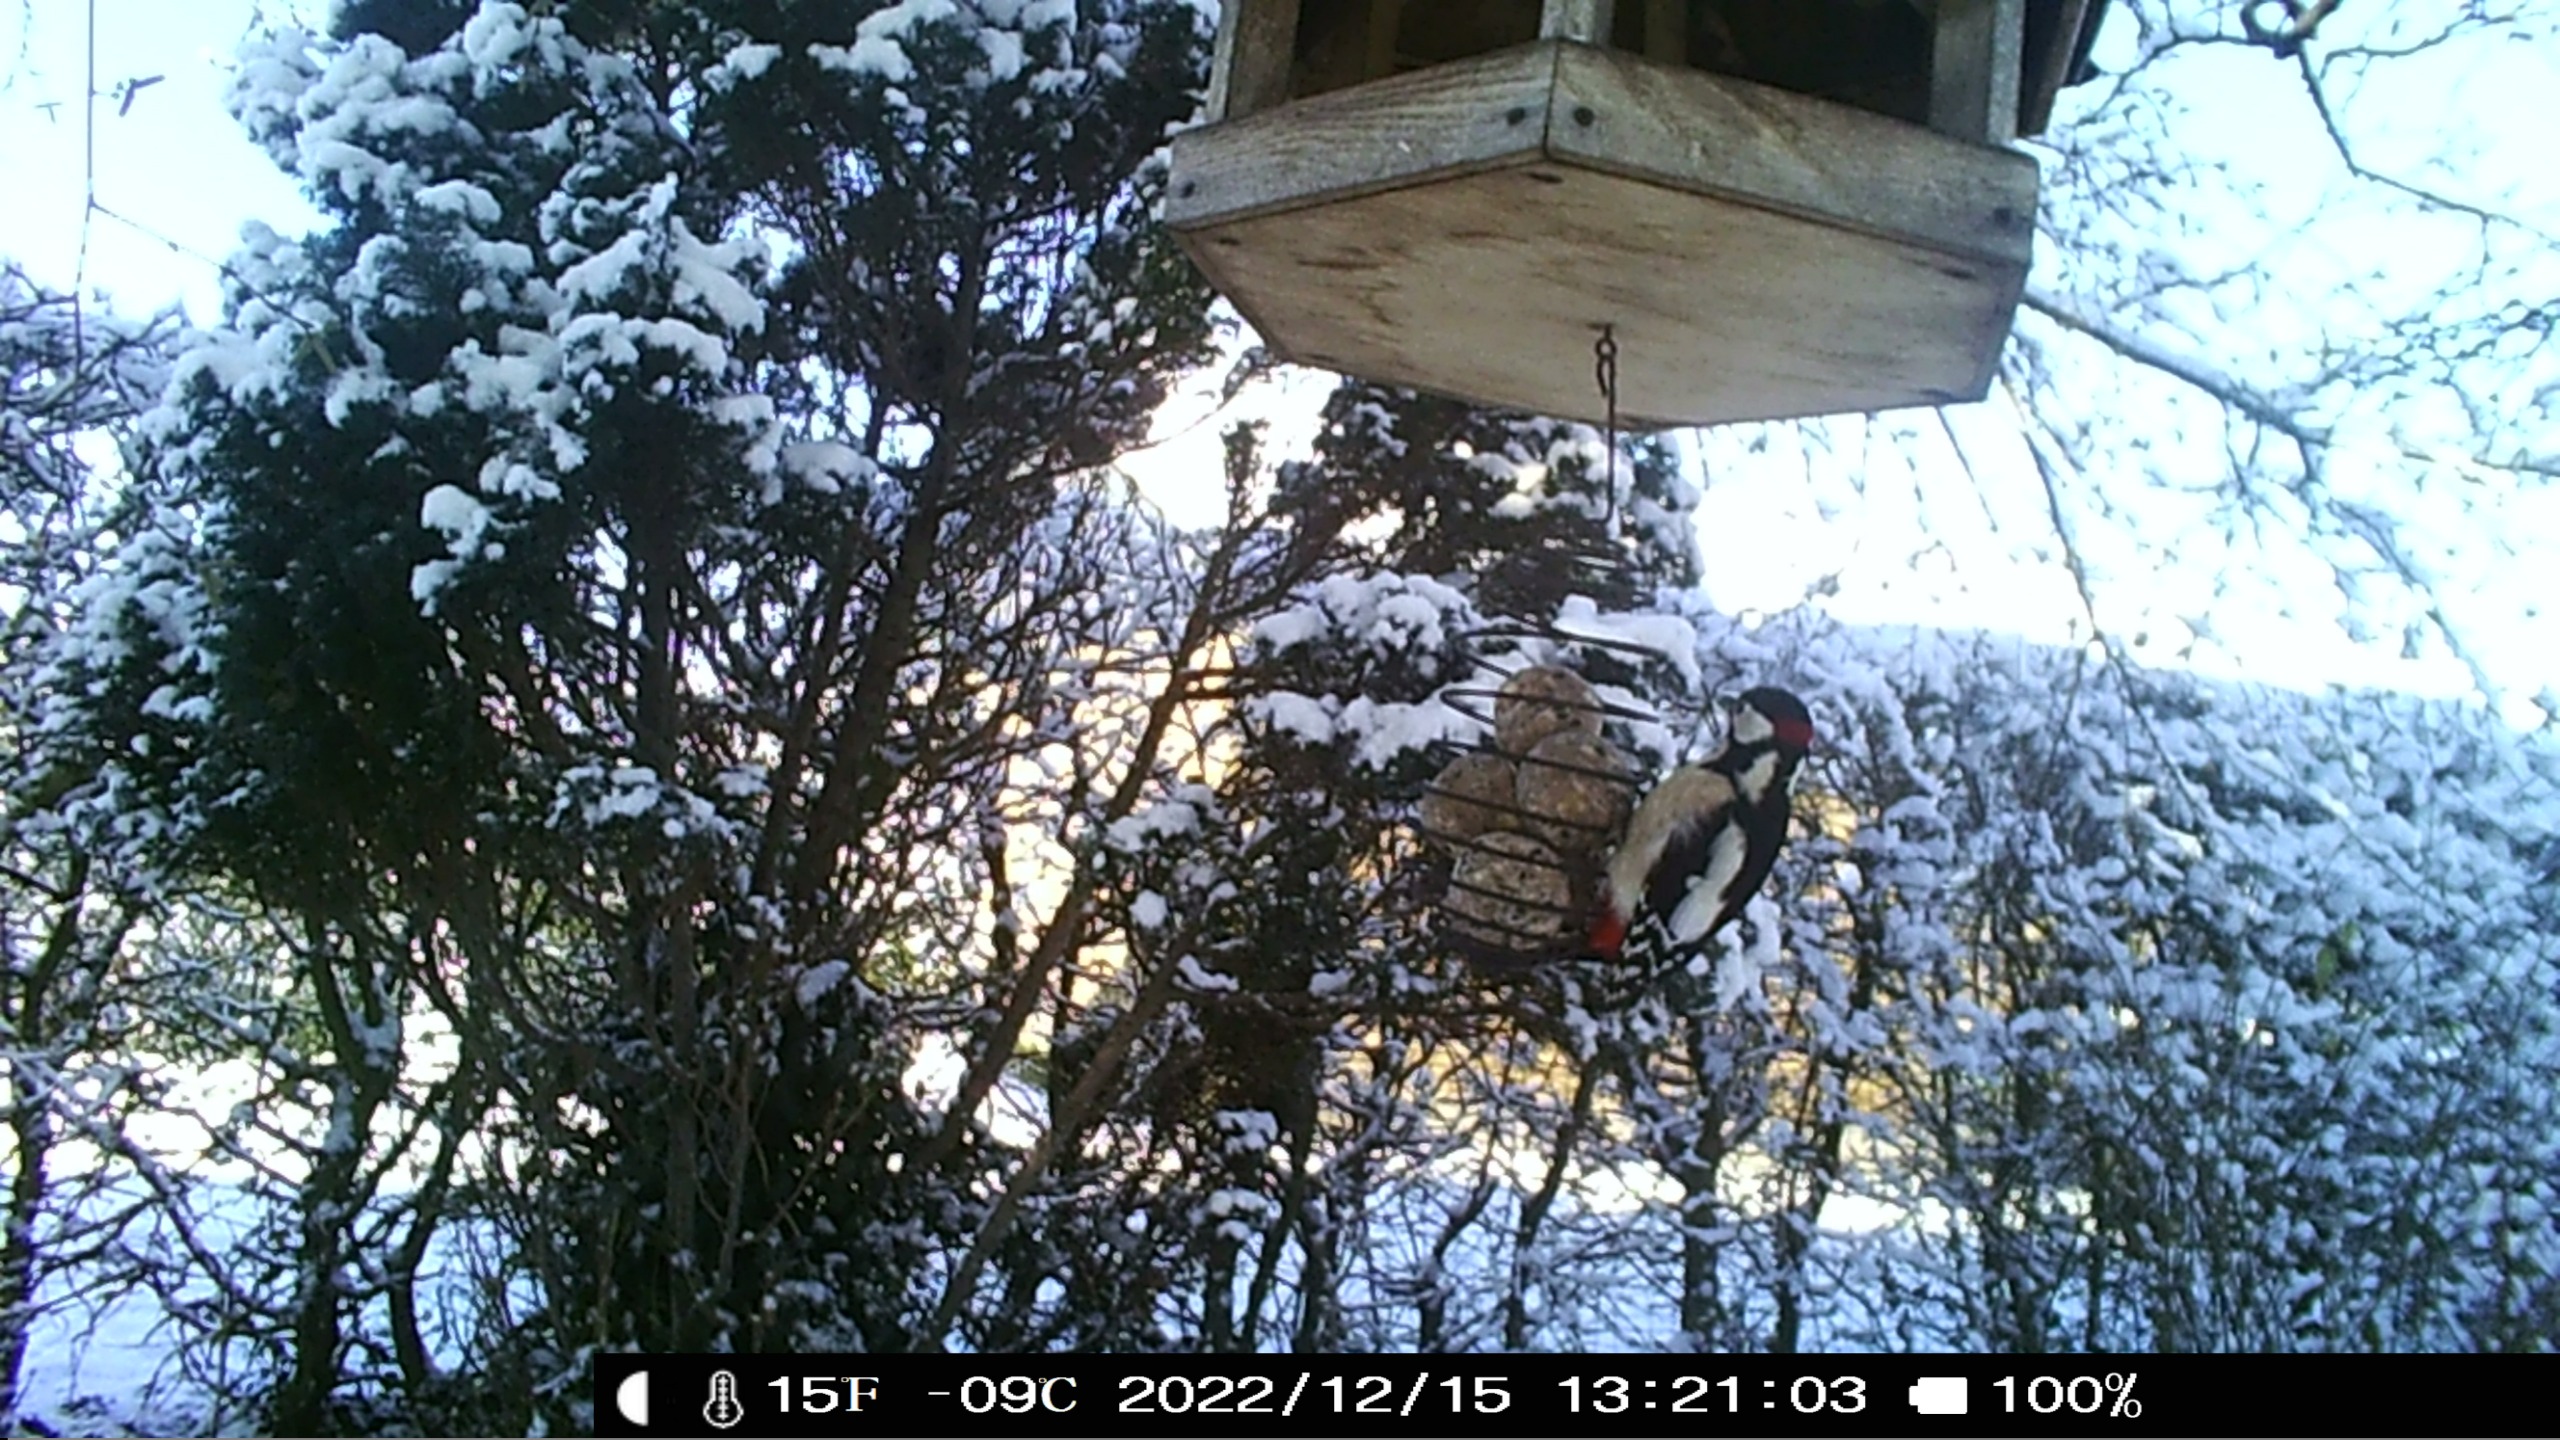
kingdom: Animalia
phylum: Chordata
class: Aves
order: Piciformes
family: Picidae
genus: Dendrocopos
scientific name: Dendrocopos major
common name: Stor flagspætte
